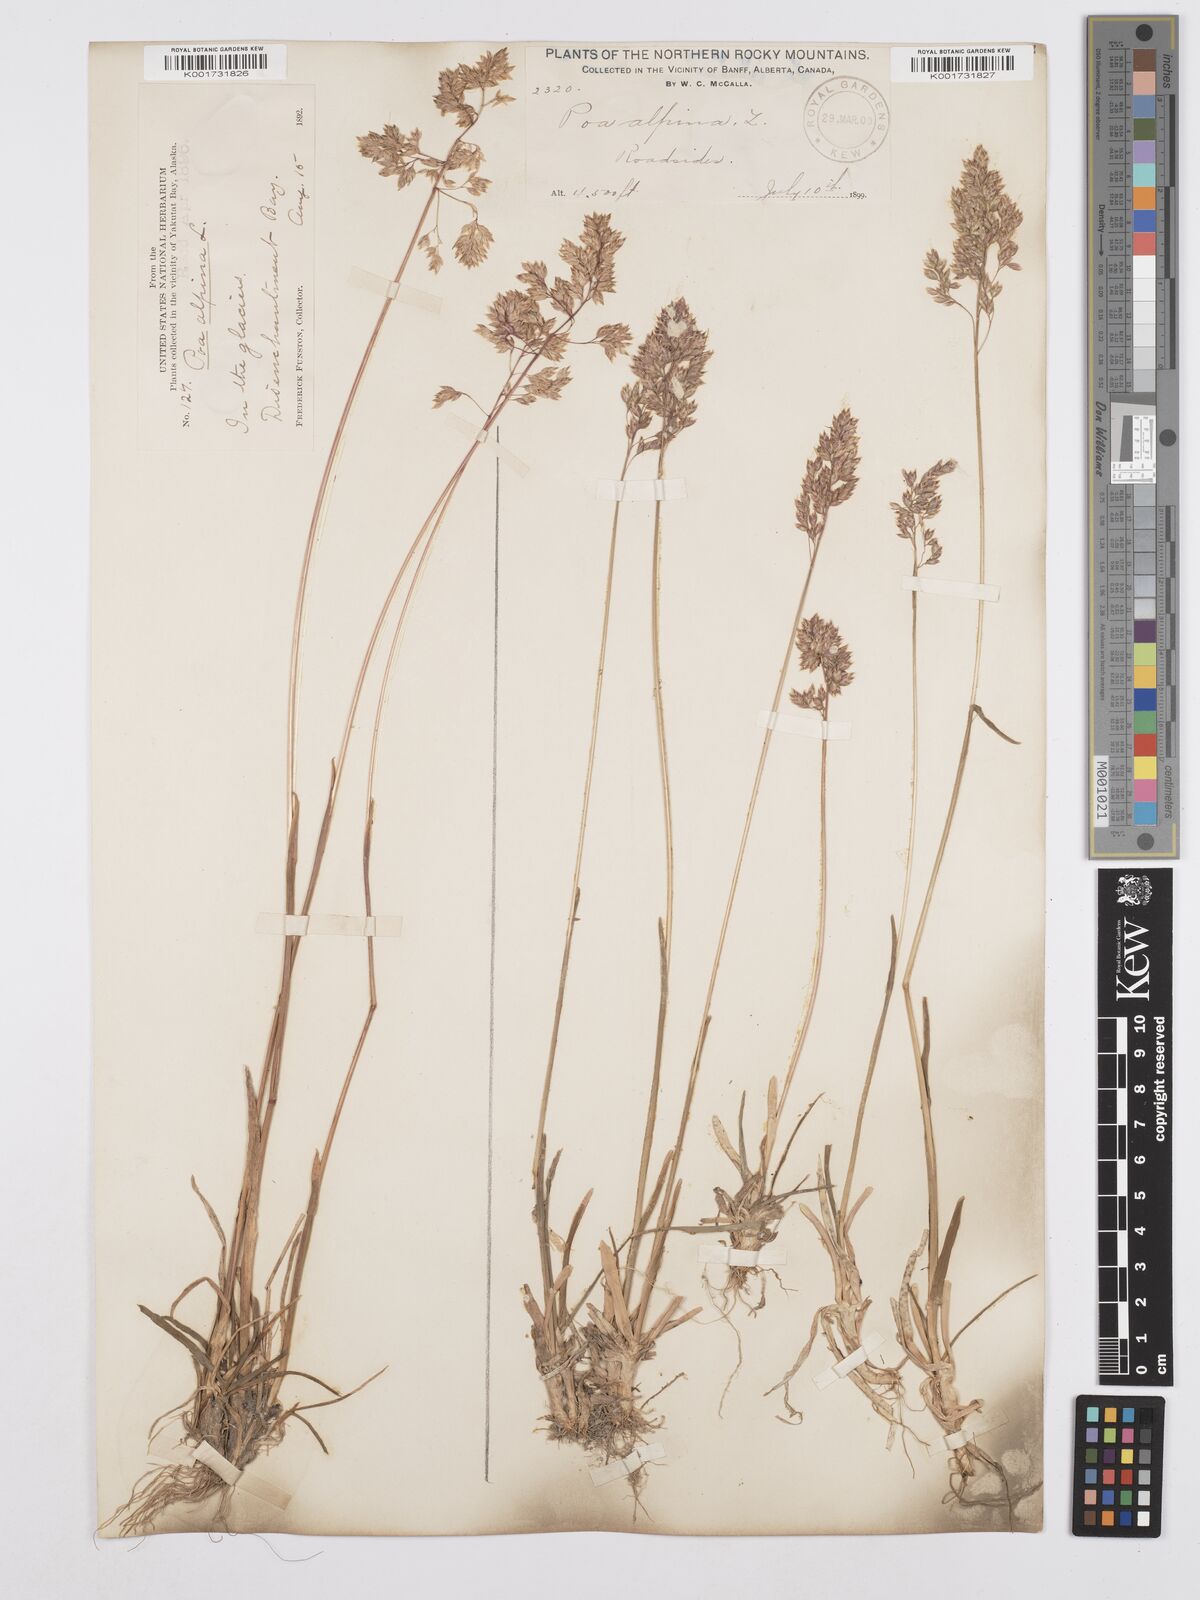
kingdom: Plantae
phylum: Tracheophyta
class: Liliopsida
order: Poales
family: Poaceae
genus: Poa
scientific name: Poa alpina
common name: Alpine bluegrass
